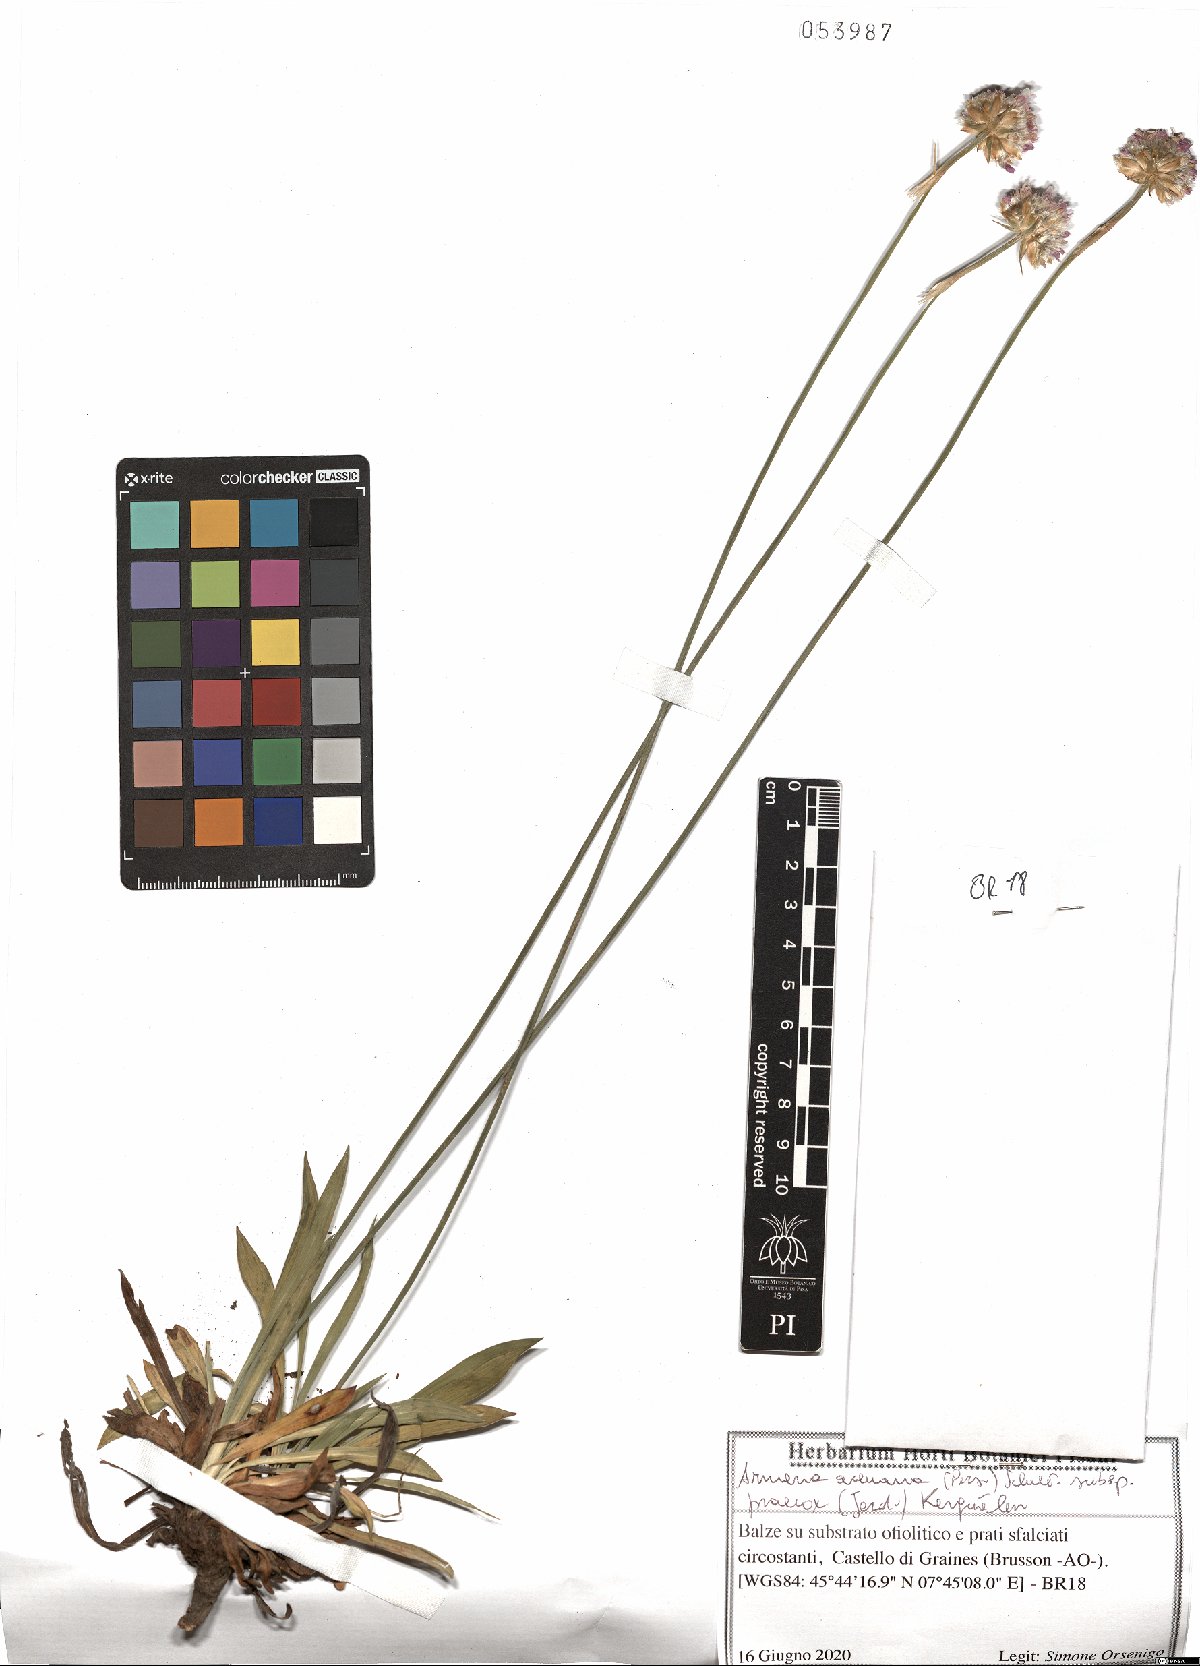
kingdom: Plantae
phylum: Tracheophyta
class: Magnoliopsida
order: Caryophyllales
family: Plumbaginaceae
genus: Armeria
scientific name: Armeria arenaria
